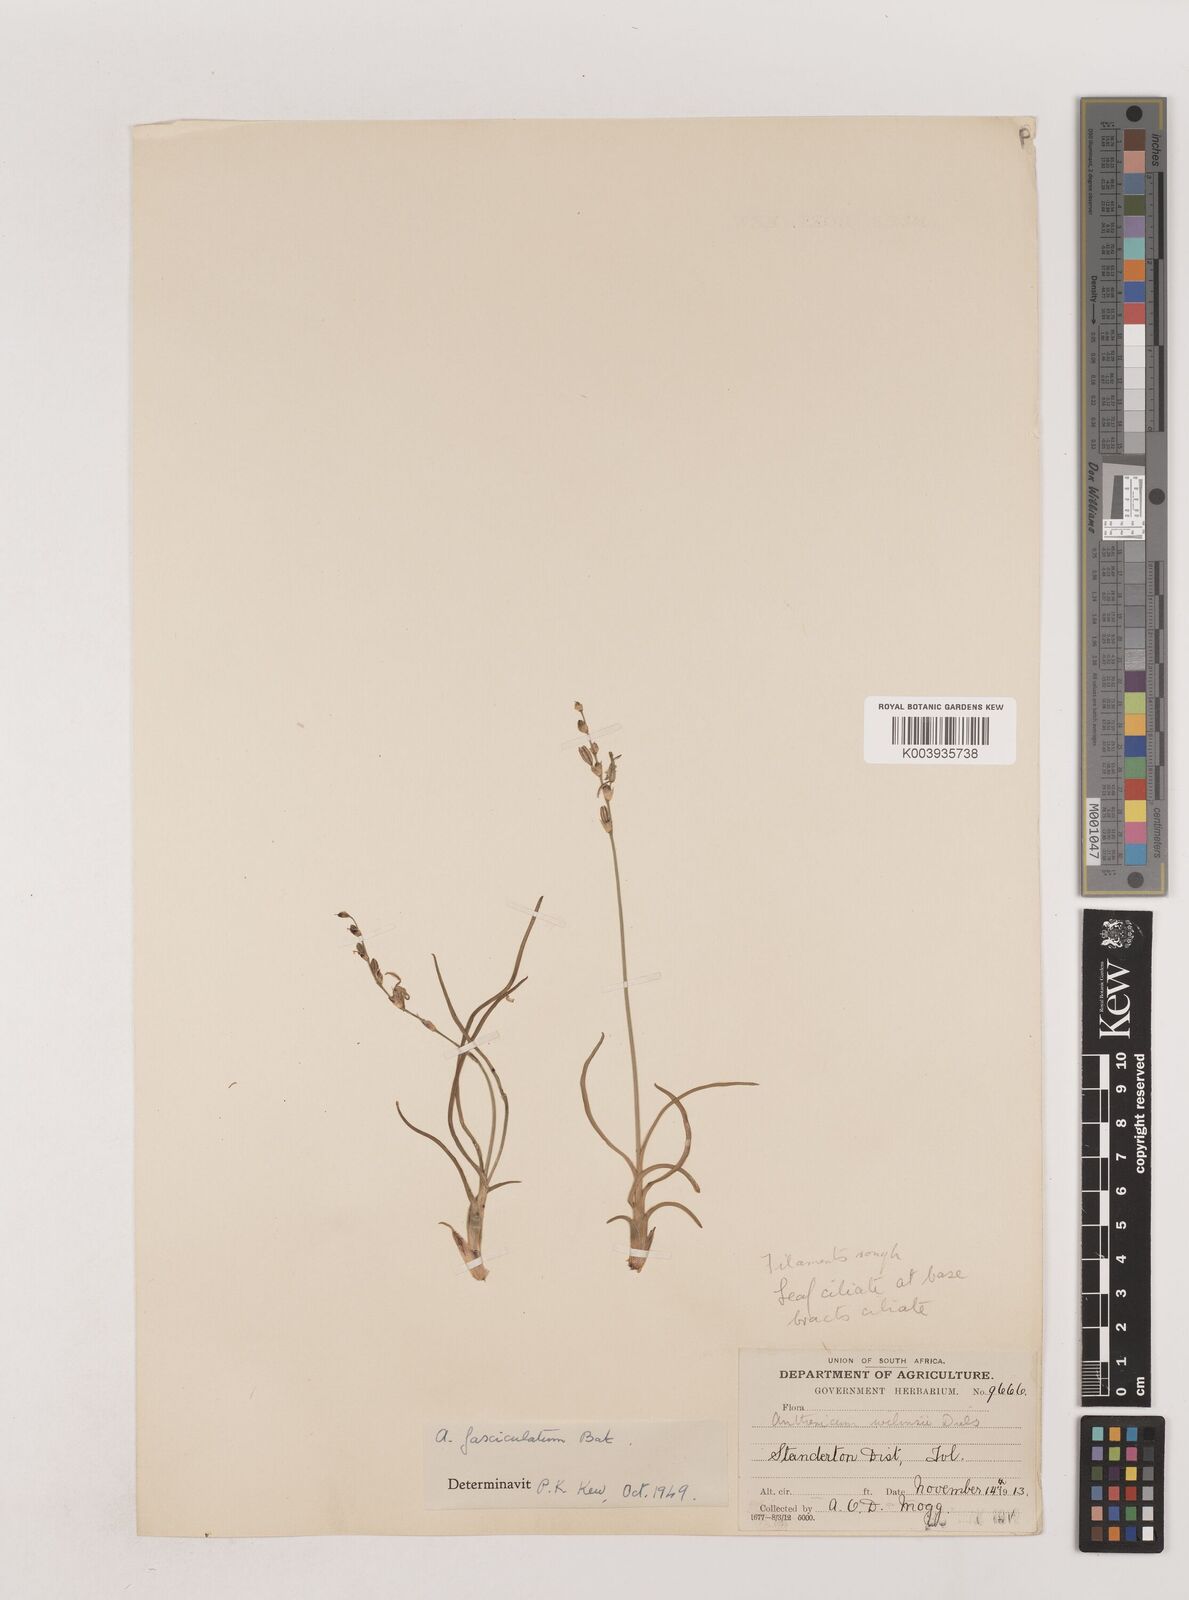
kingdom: Plantae
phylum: Tracheophyta
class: Liliopsida
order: Asparagales
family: Asparagaceae
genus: Chlorophytum
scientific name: Chlorophytum fasciculatum
